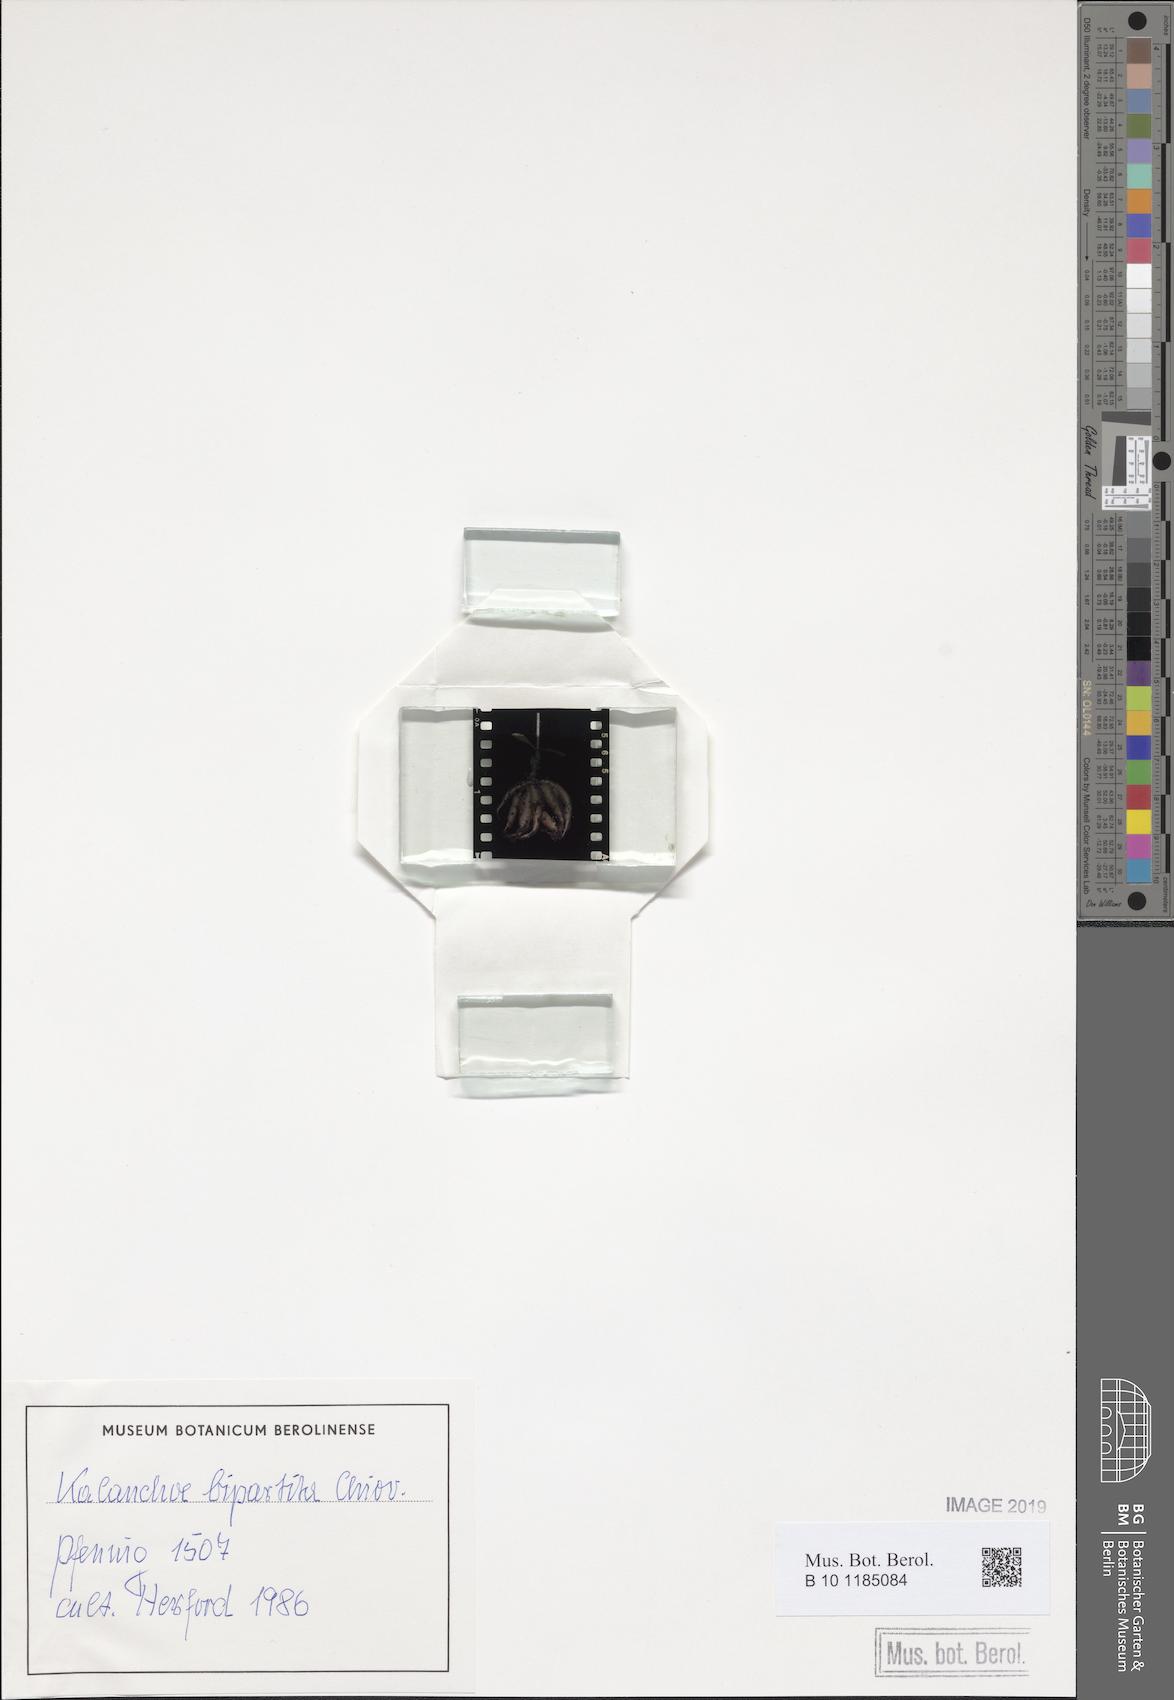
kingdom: Plantae
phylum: Tracheophyta
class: Magnoliopsida
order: Saxifragales
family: Crassulaceae
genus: Kalanchoe
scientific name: Kalanchoe bipartita
